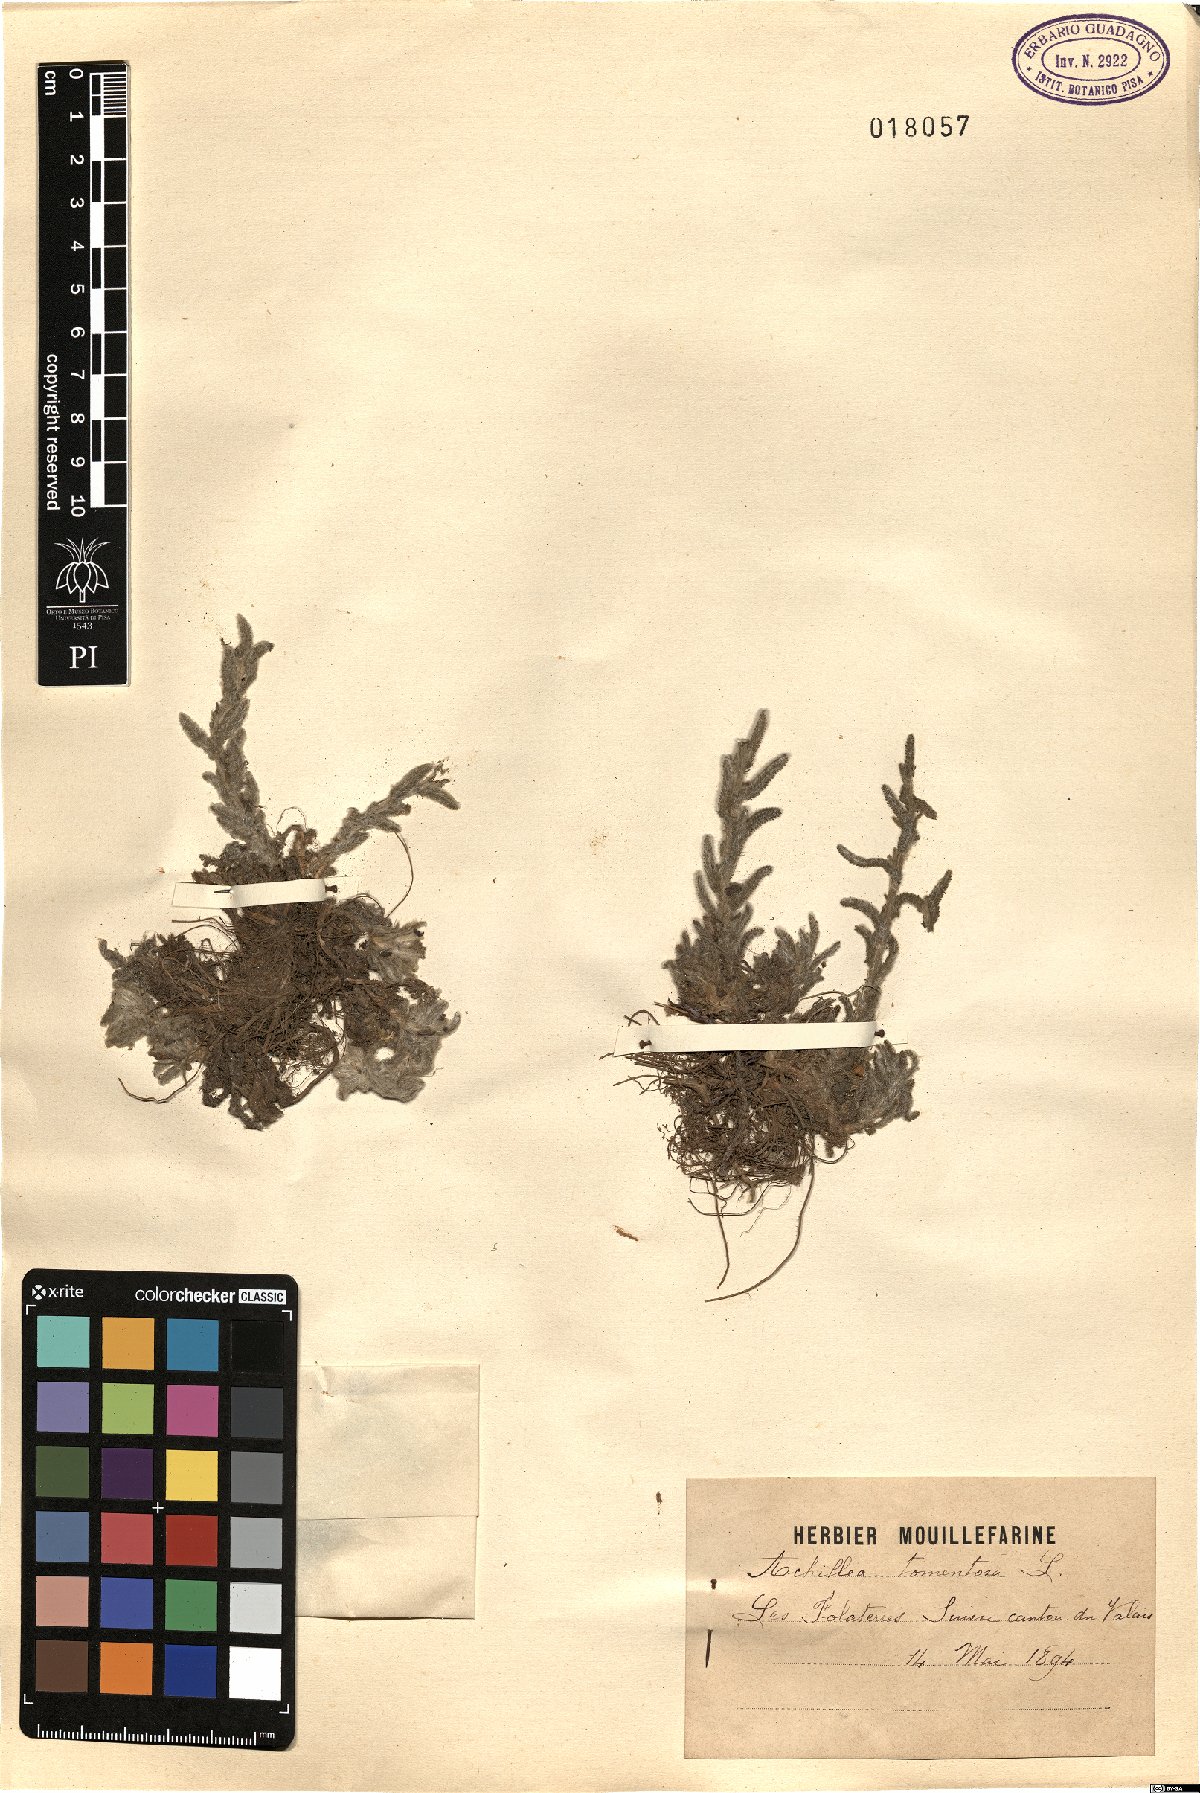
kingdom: Plantae
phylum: Tracheophyta
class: Magnoliopsida
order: Asterales
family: Asteraceae
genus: Achillea
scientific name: Achillea tomentosa
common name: Yellow milfoil
